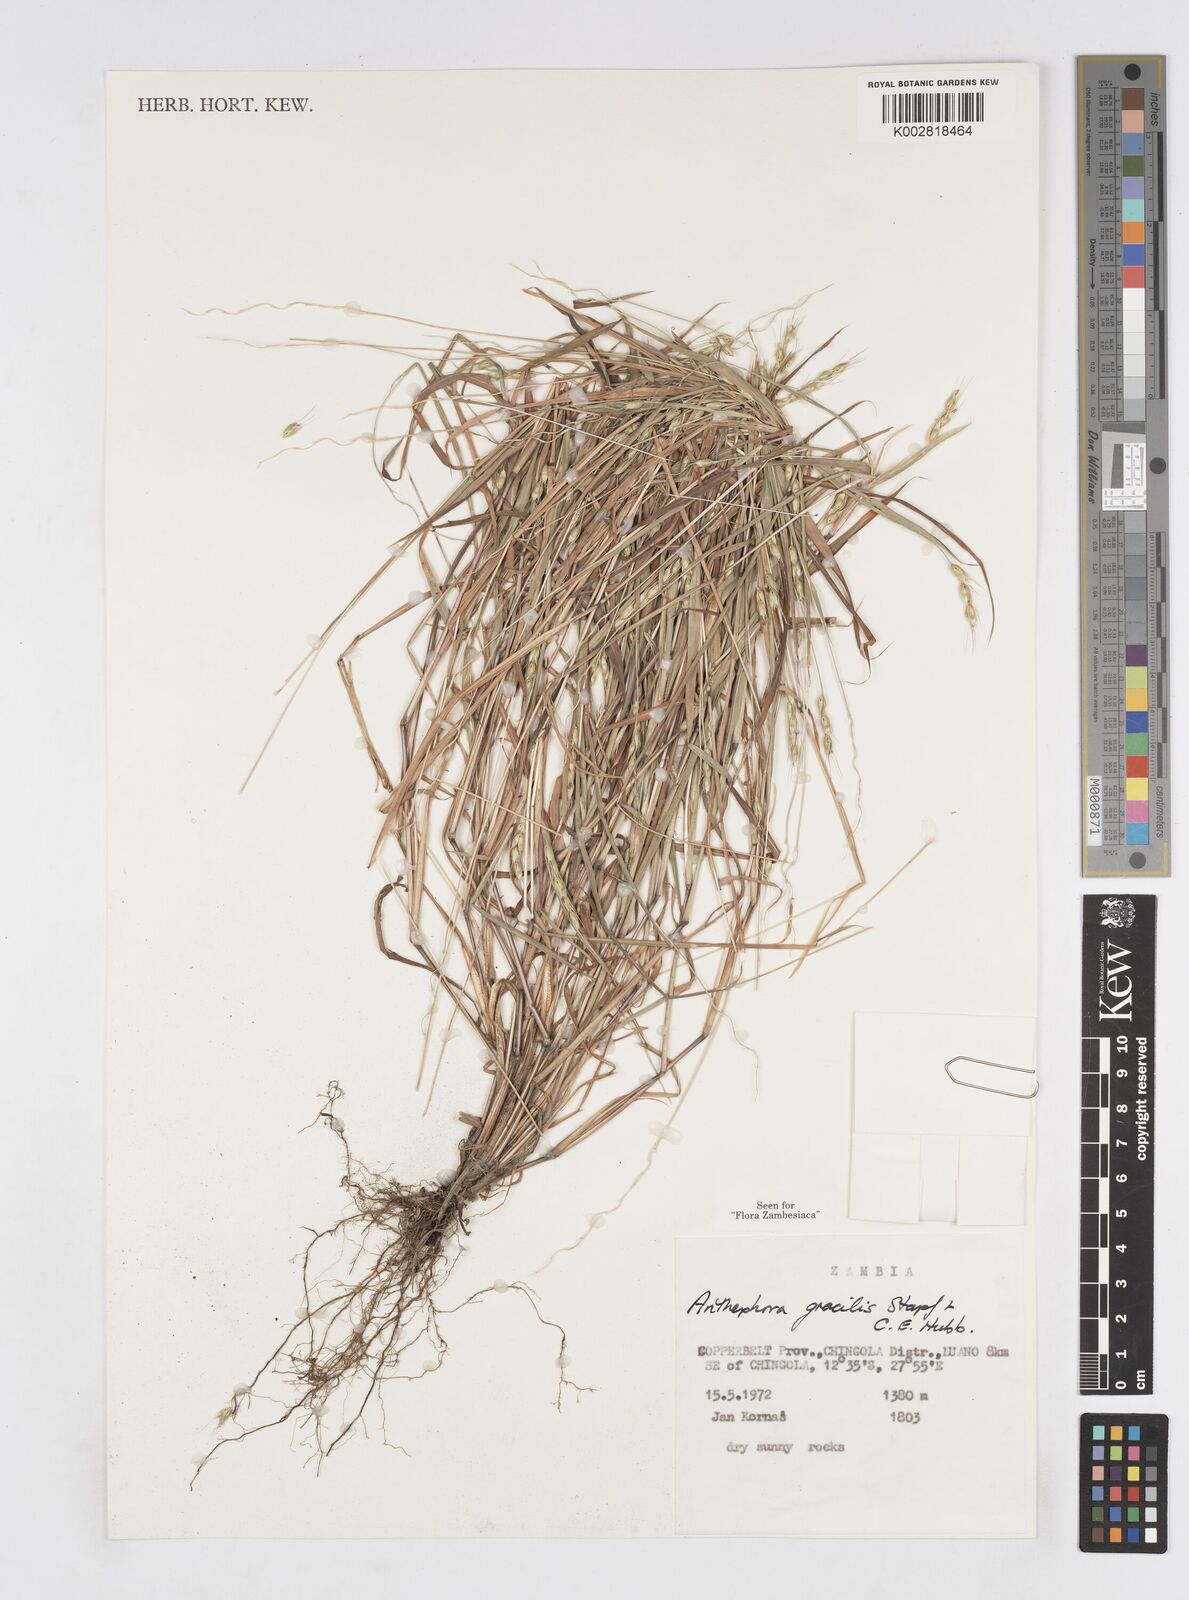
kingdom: Plantae
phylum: Tracheophyta
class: Liliopsida
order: Poales
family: Poaceae
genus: Anthephora
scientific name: Anthephora truncata
